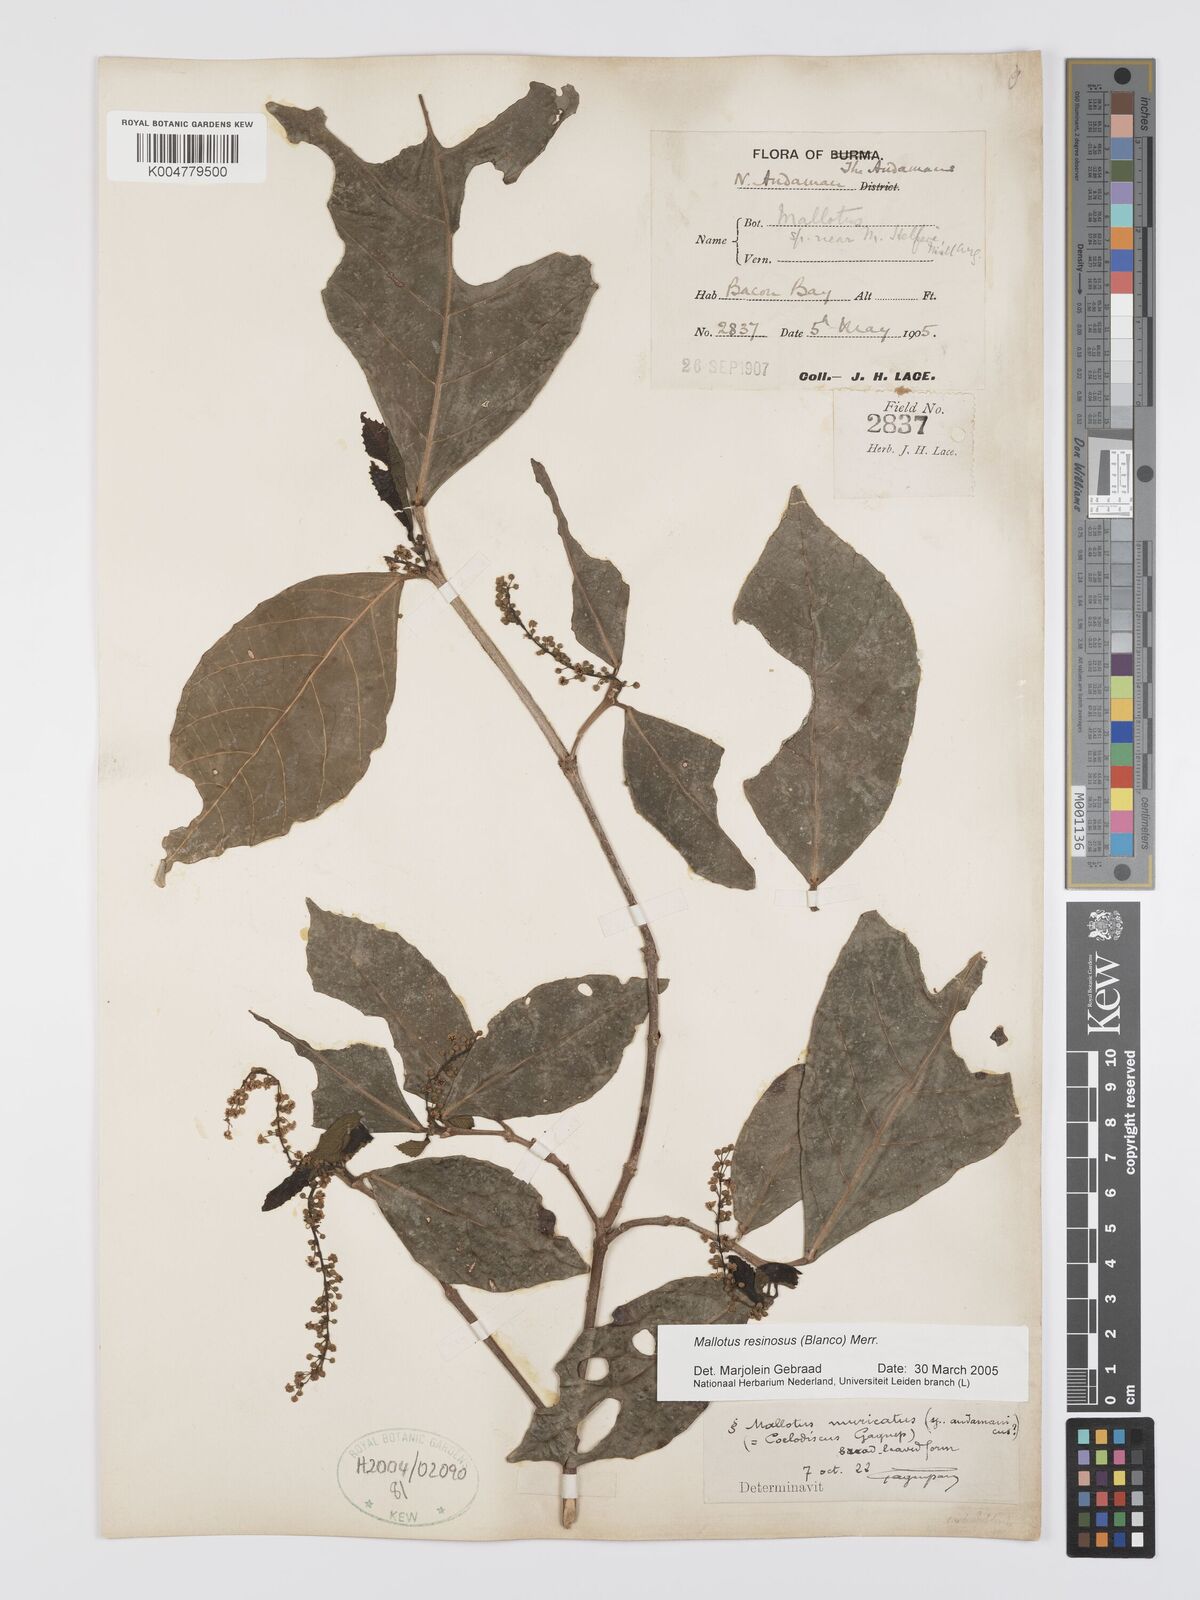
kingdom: Plantae
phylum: Tracheophyta
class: Magnoliopsida
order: Malpighiales
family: Euphorbiaceae
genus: Mallotus
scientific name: Mallotus resinosus
